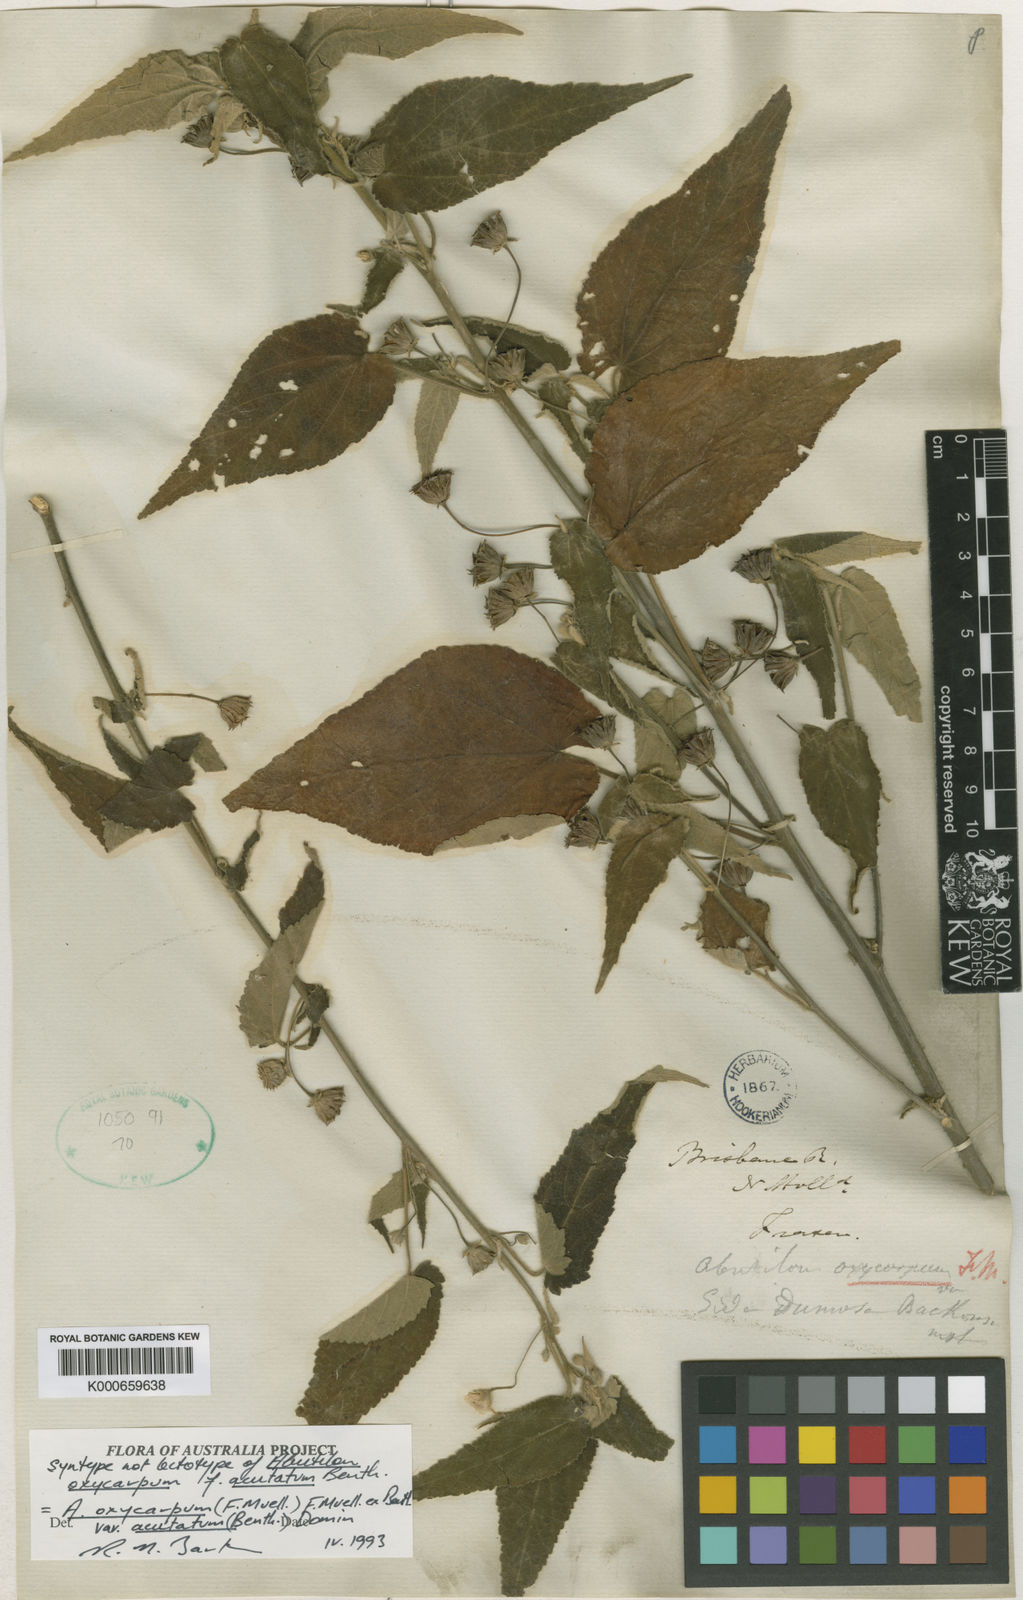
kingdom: Plantae
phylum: Tracheophyta
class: Magnoliopsida
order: Malvales
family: Malvaceae
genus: Abutilon
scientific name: Abutilon oxycarpum
